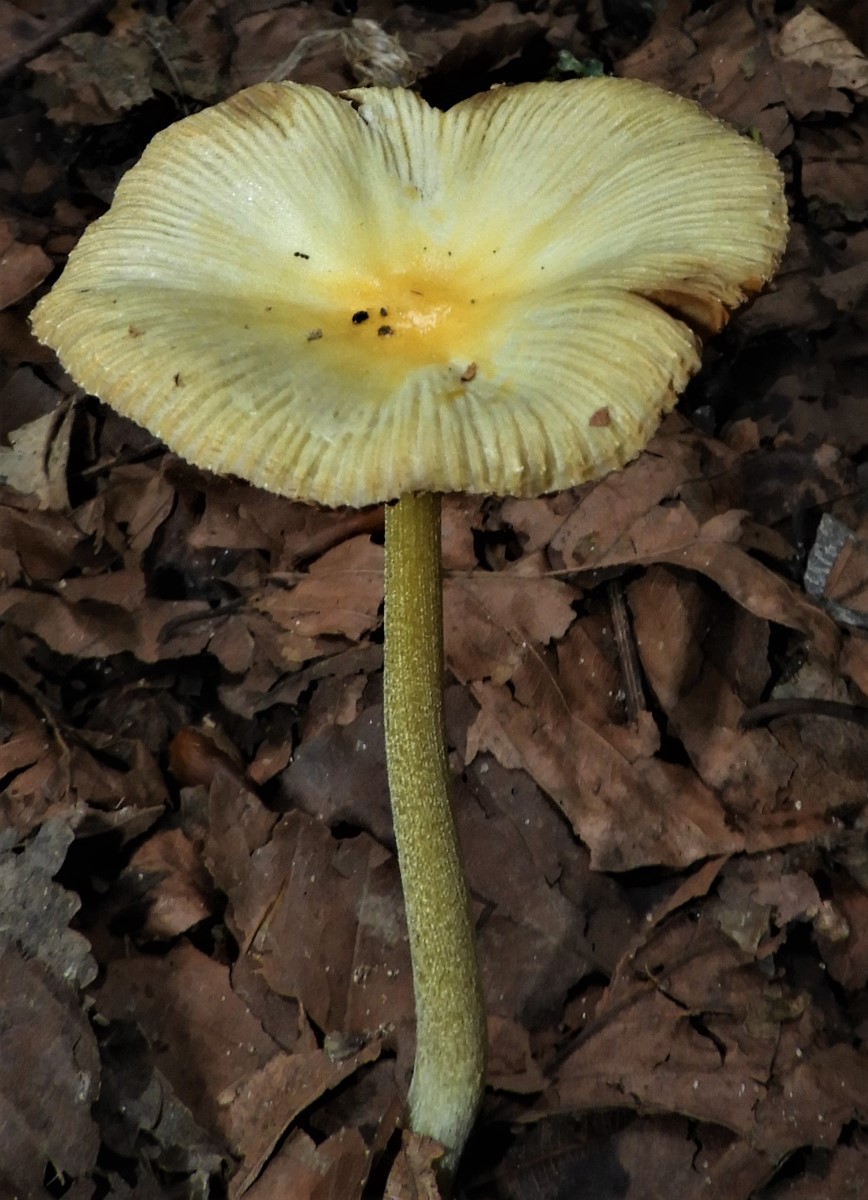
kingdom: Fungi
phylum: Basidiomycota
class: Agaricomycetes
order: Agaricales
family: Bolbitiaceae
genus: Bolbitius
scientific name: Bolbitius titubans
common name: almindelig gulhat
